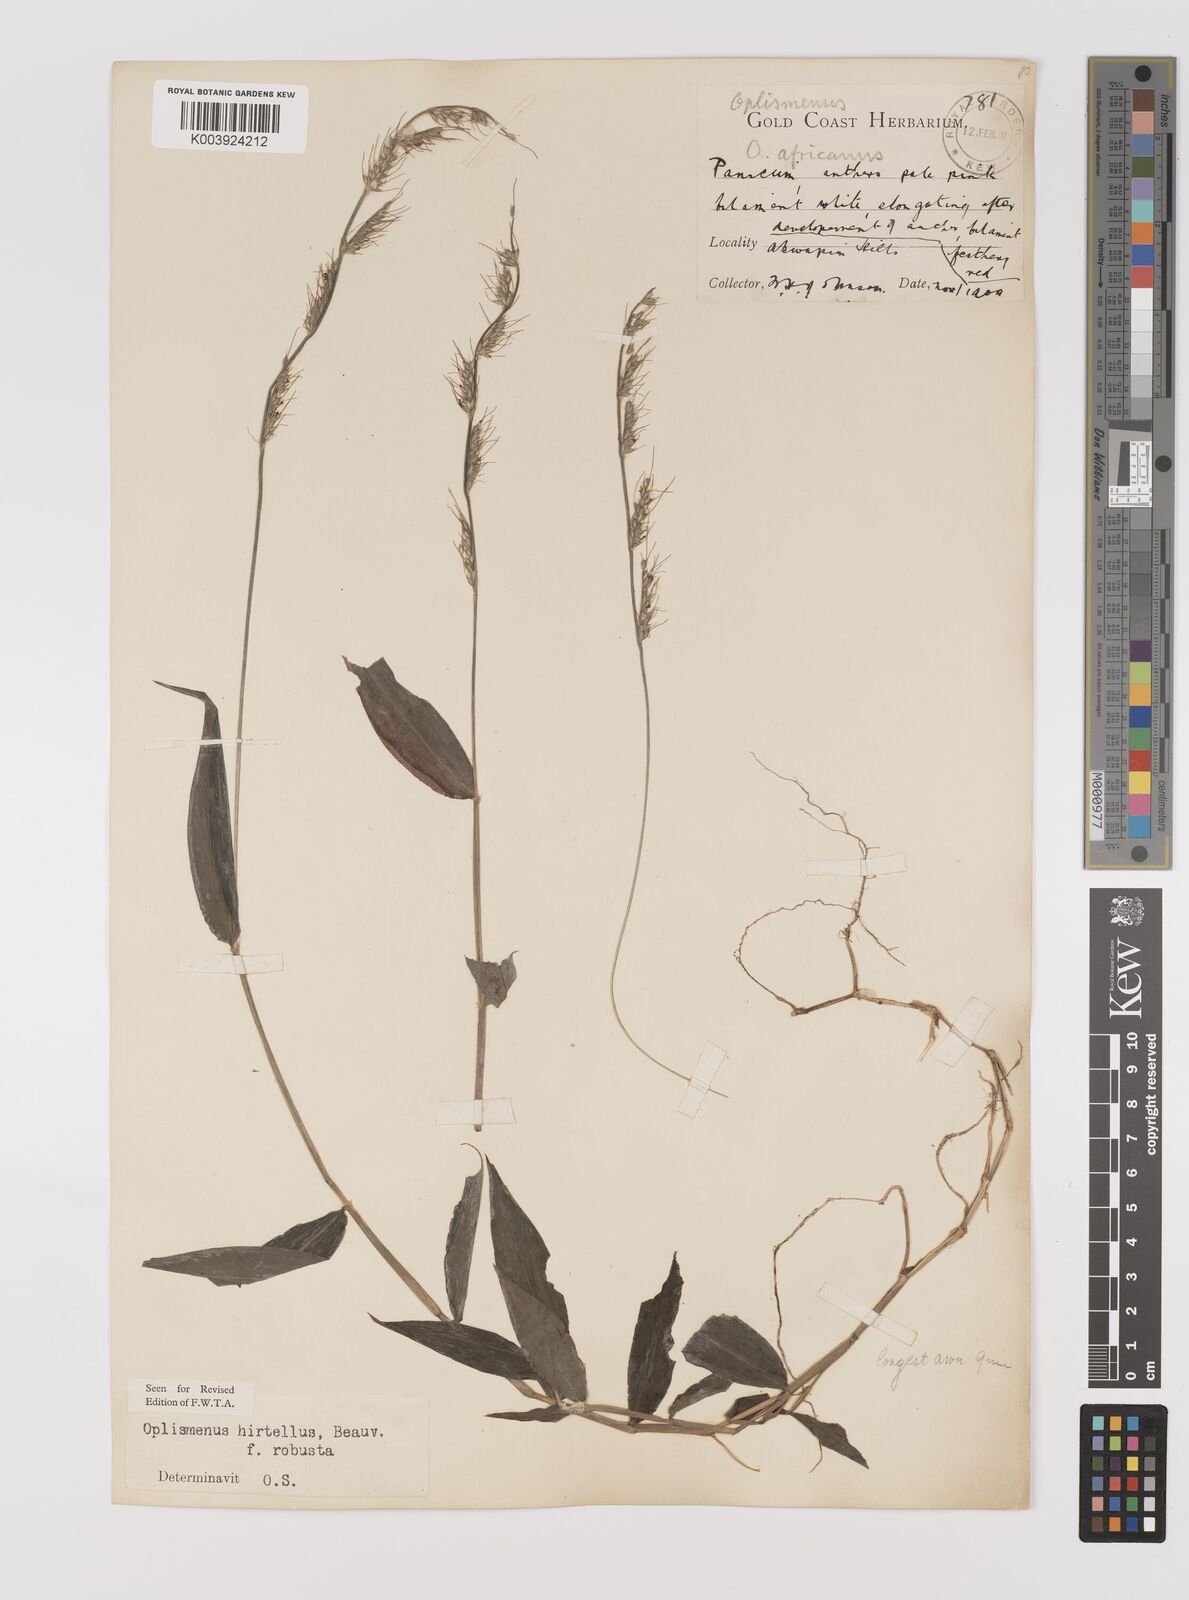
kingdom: Plantae
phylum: Tracheophyta
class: Liliopsida
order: Poales
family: Poaceae
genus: Oplismenus
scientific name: Oplismenus hirtellus
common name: Basketgrass
